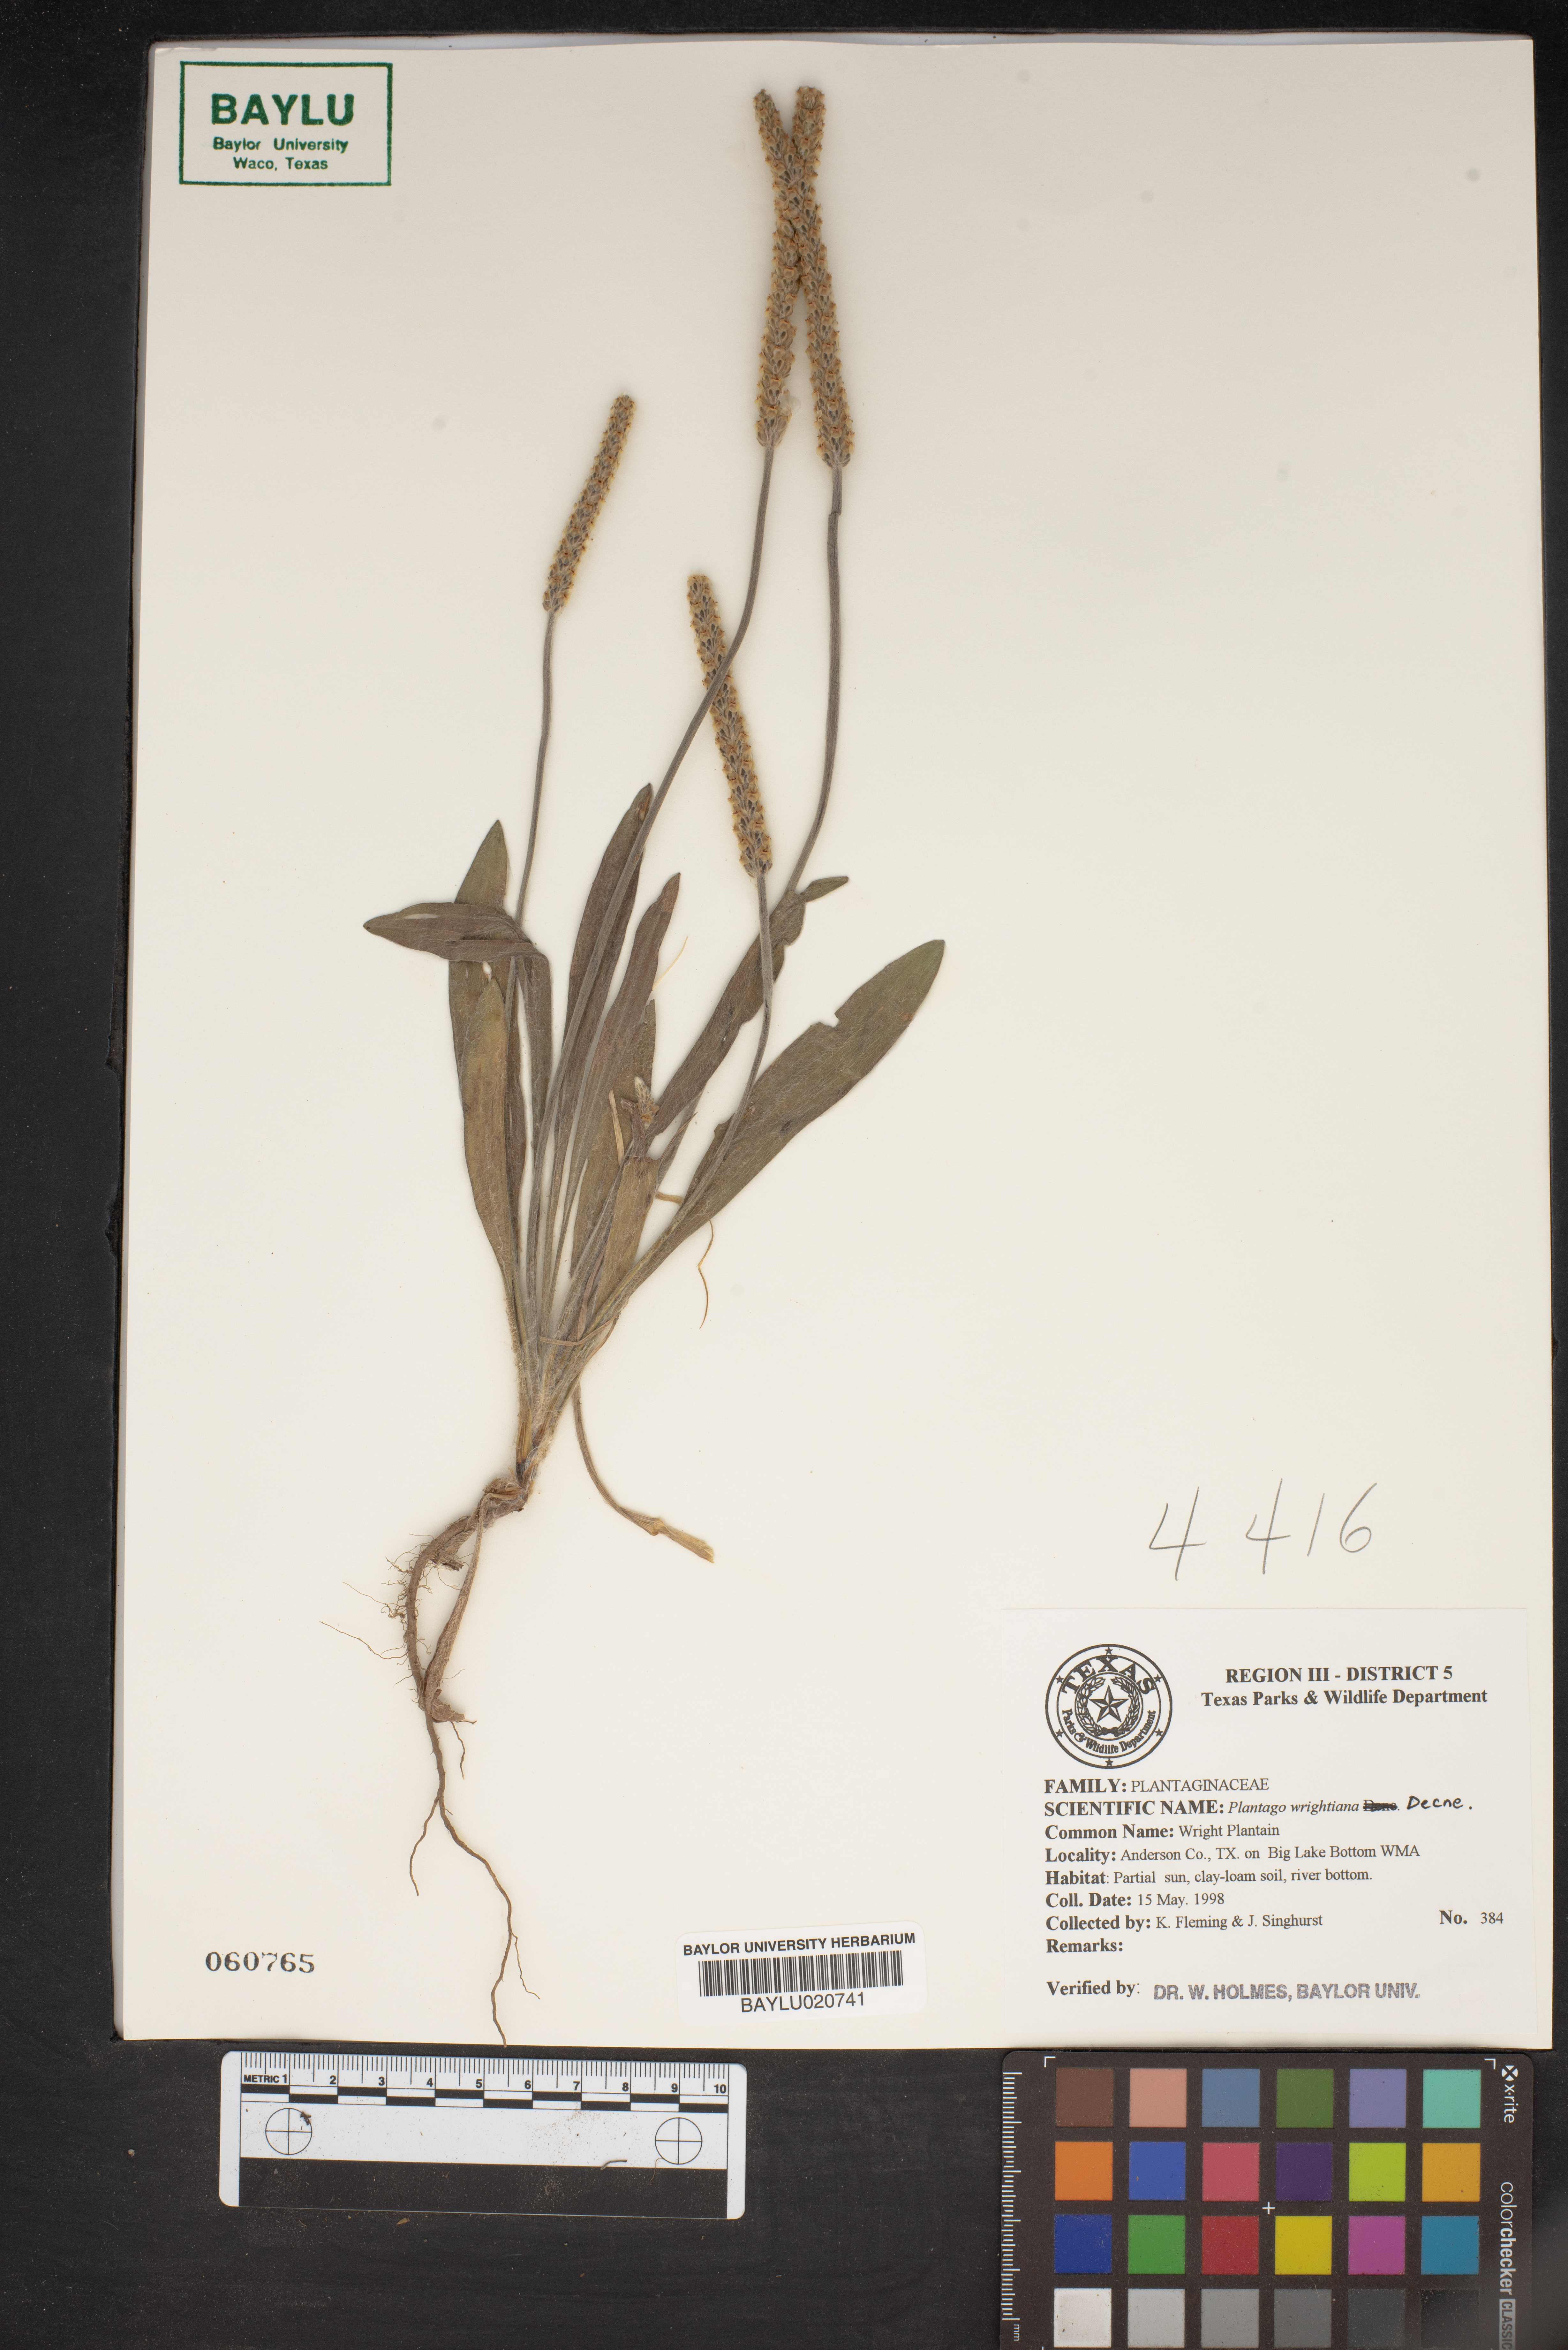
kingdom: Plantae
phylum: Tracheophyta
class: Magnoliopsida
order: Lamiales
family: Plantaginaceae
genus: Plantago
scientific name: Plantago wrightiana
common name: Wright's plantain
